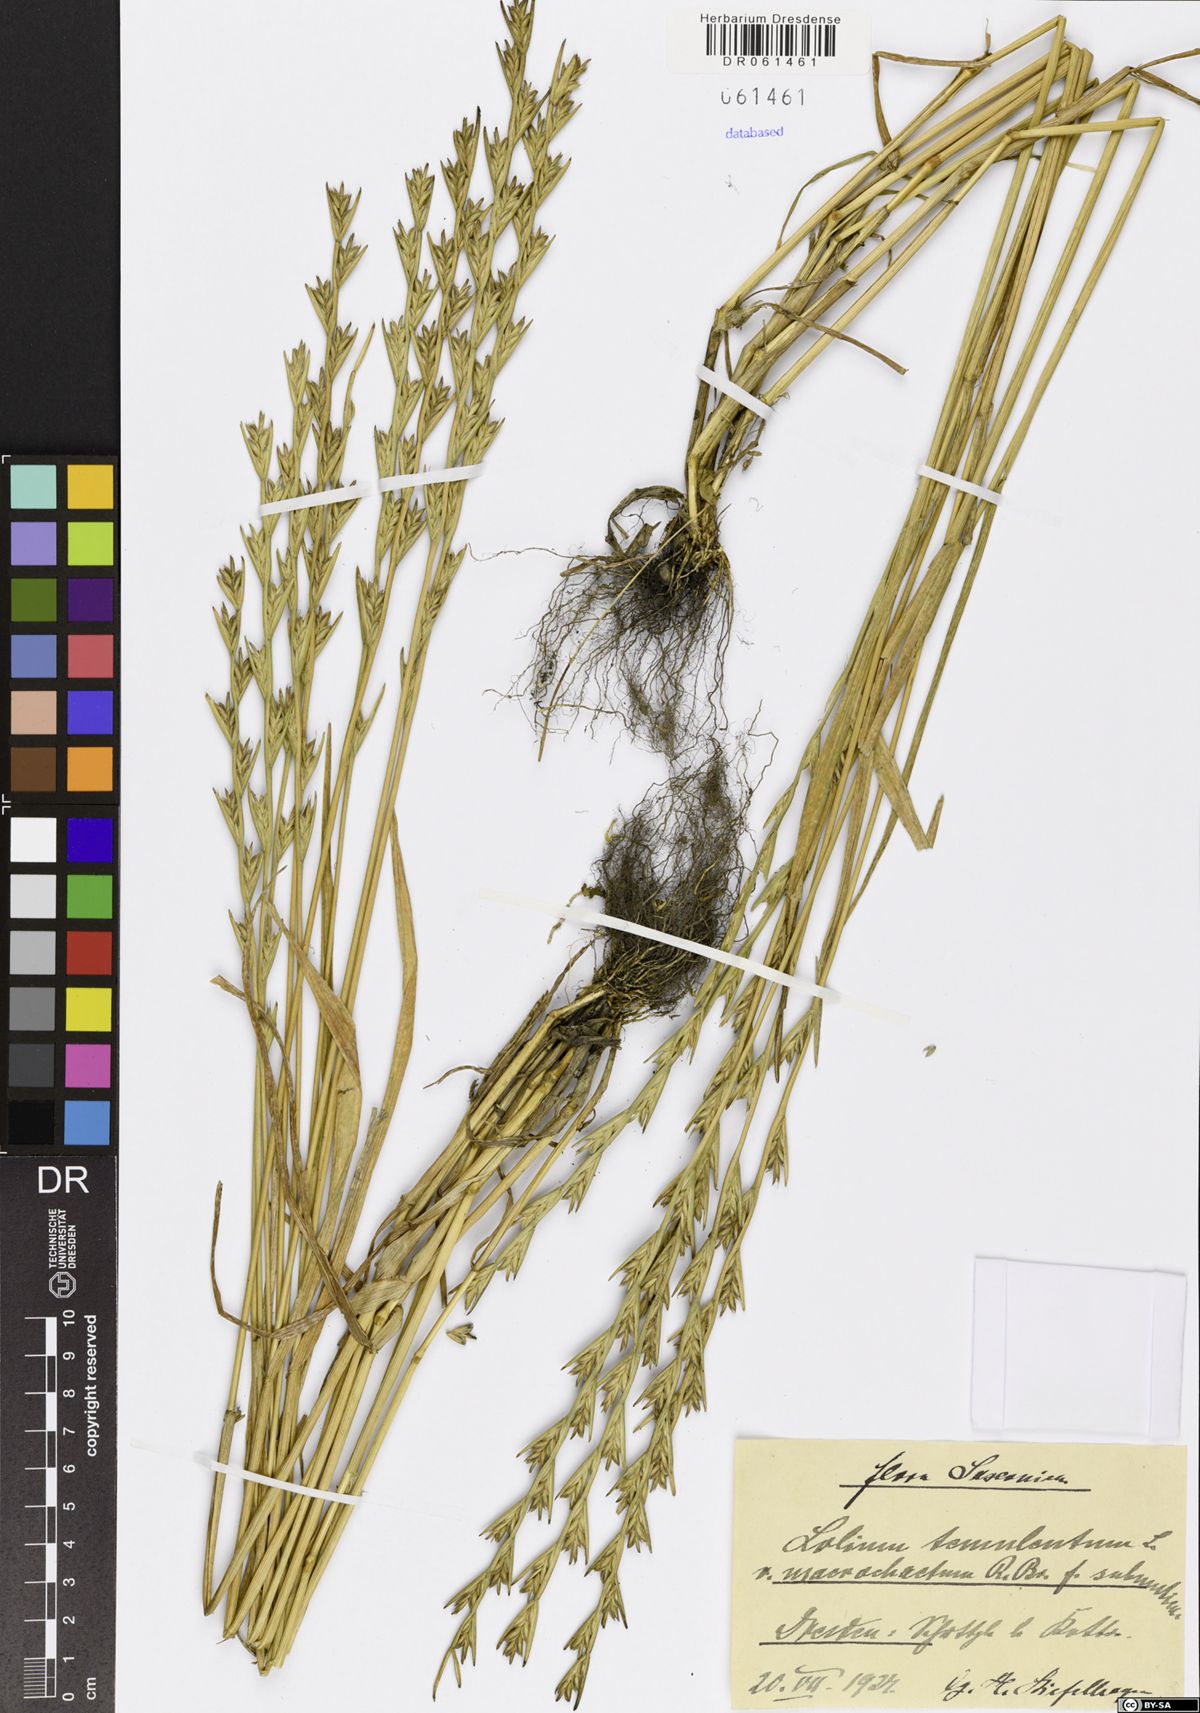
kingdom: Plantae
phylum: Tracheophyta
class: Liliopsida
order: Poales
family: Poaceae
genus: Lolium
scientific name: Lolium temulentum
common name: Darnel
